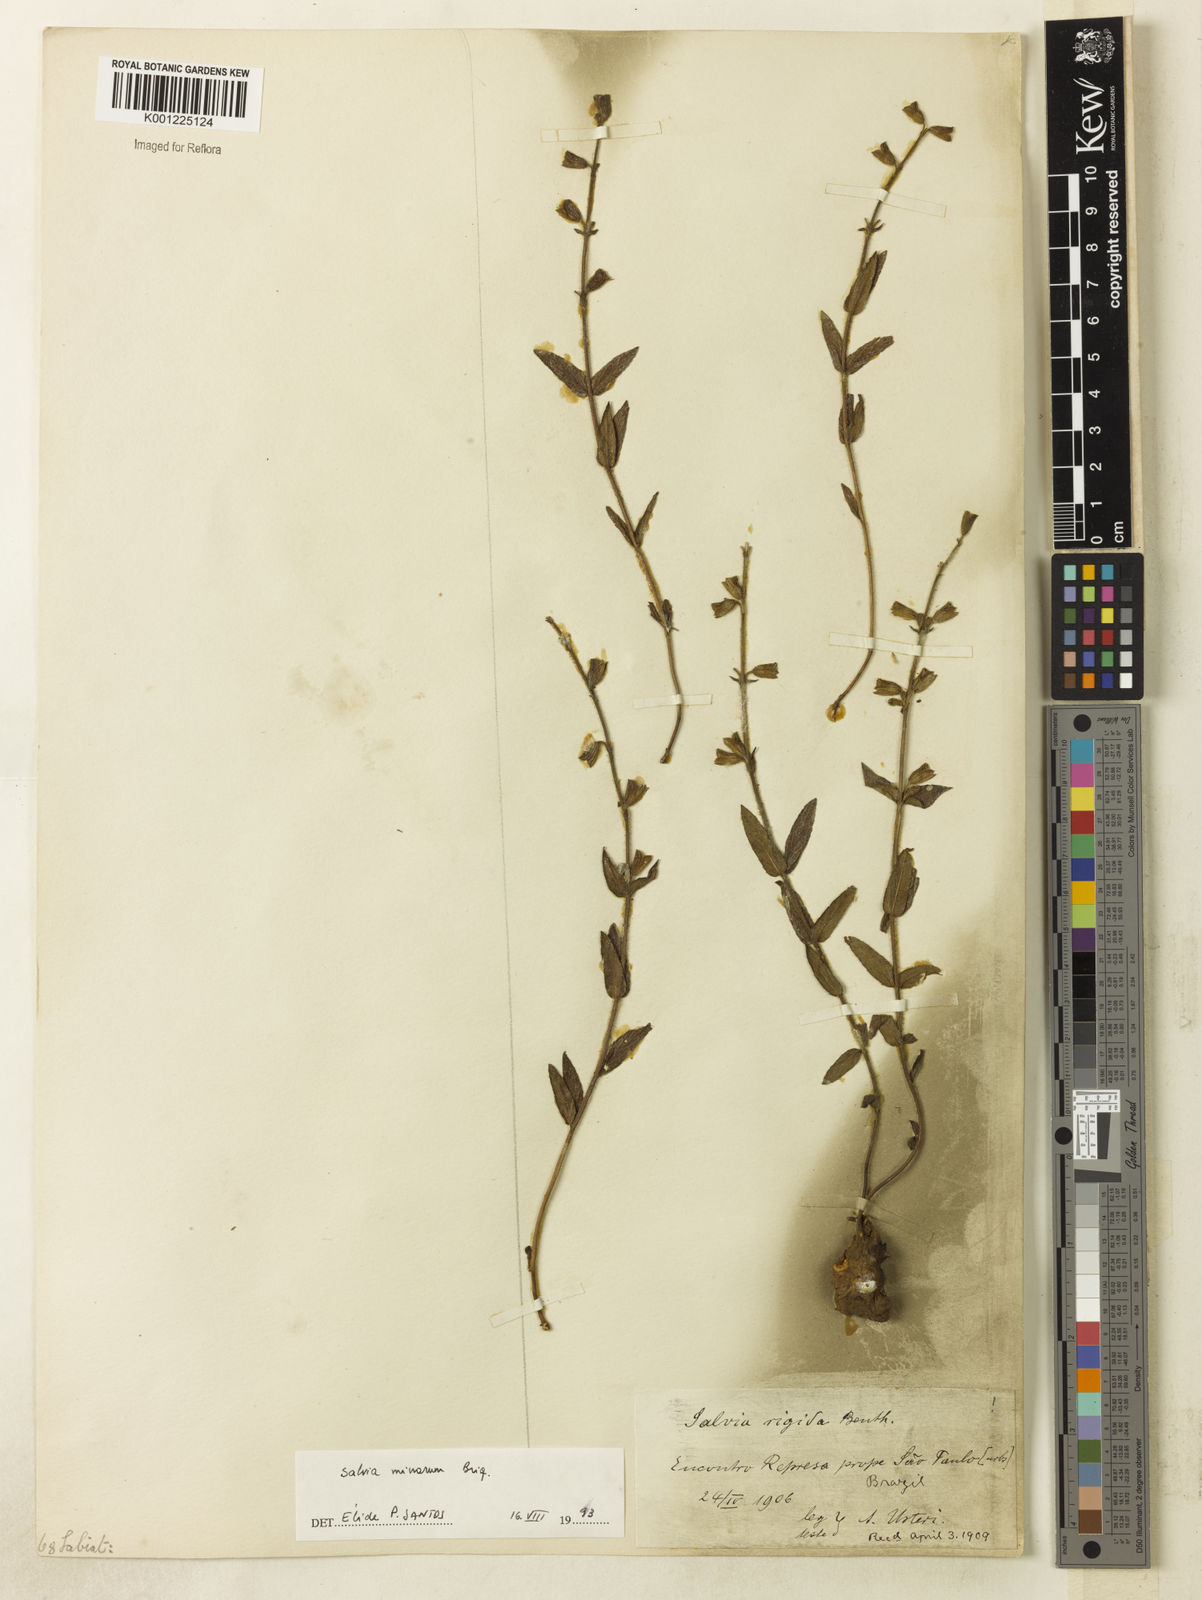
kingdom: Plantae
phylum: Tracheophyta
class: Magnoliopsida
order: Lamiales
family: Lamiaceae
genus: Salvia
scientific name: Salvia minarum
